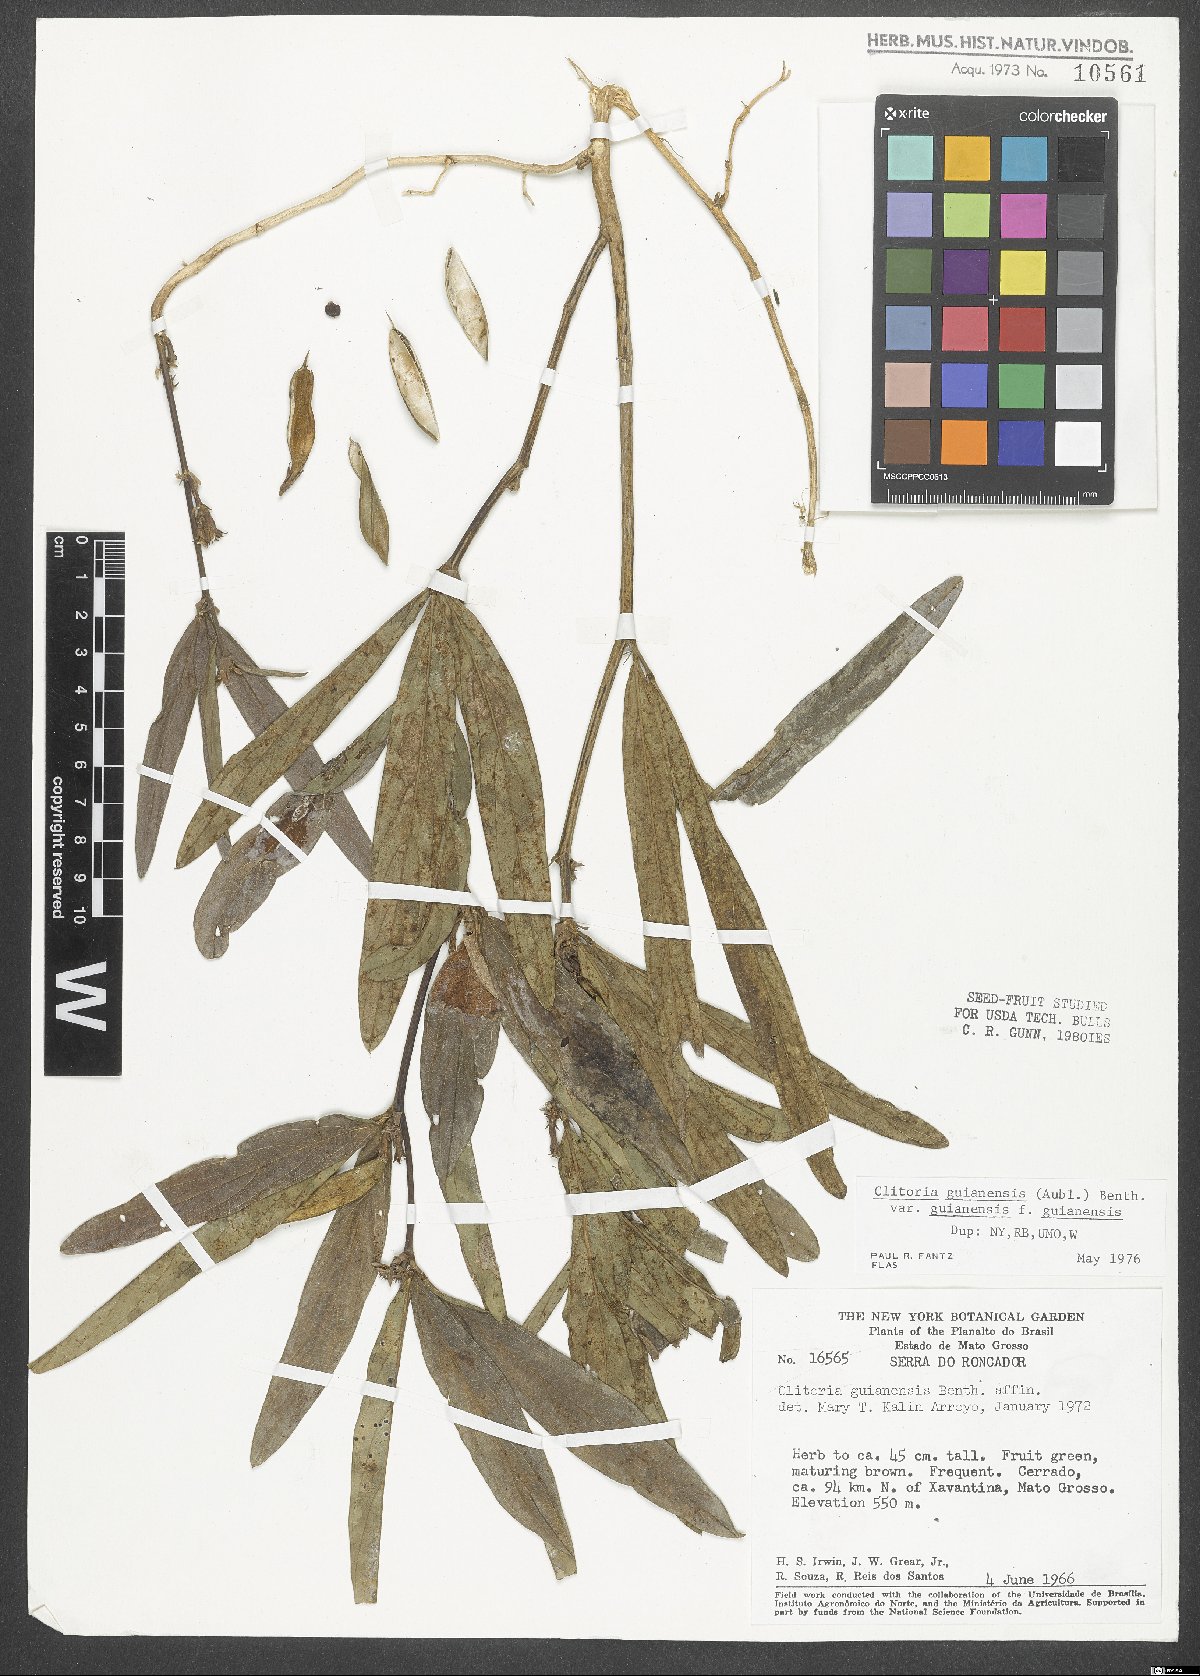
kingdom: Plantae
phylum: Tracheophyta
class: Magnoliopsida
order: Fabales
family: Fabaceae
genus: Clitoria
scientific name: Clitoria guianensis
